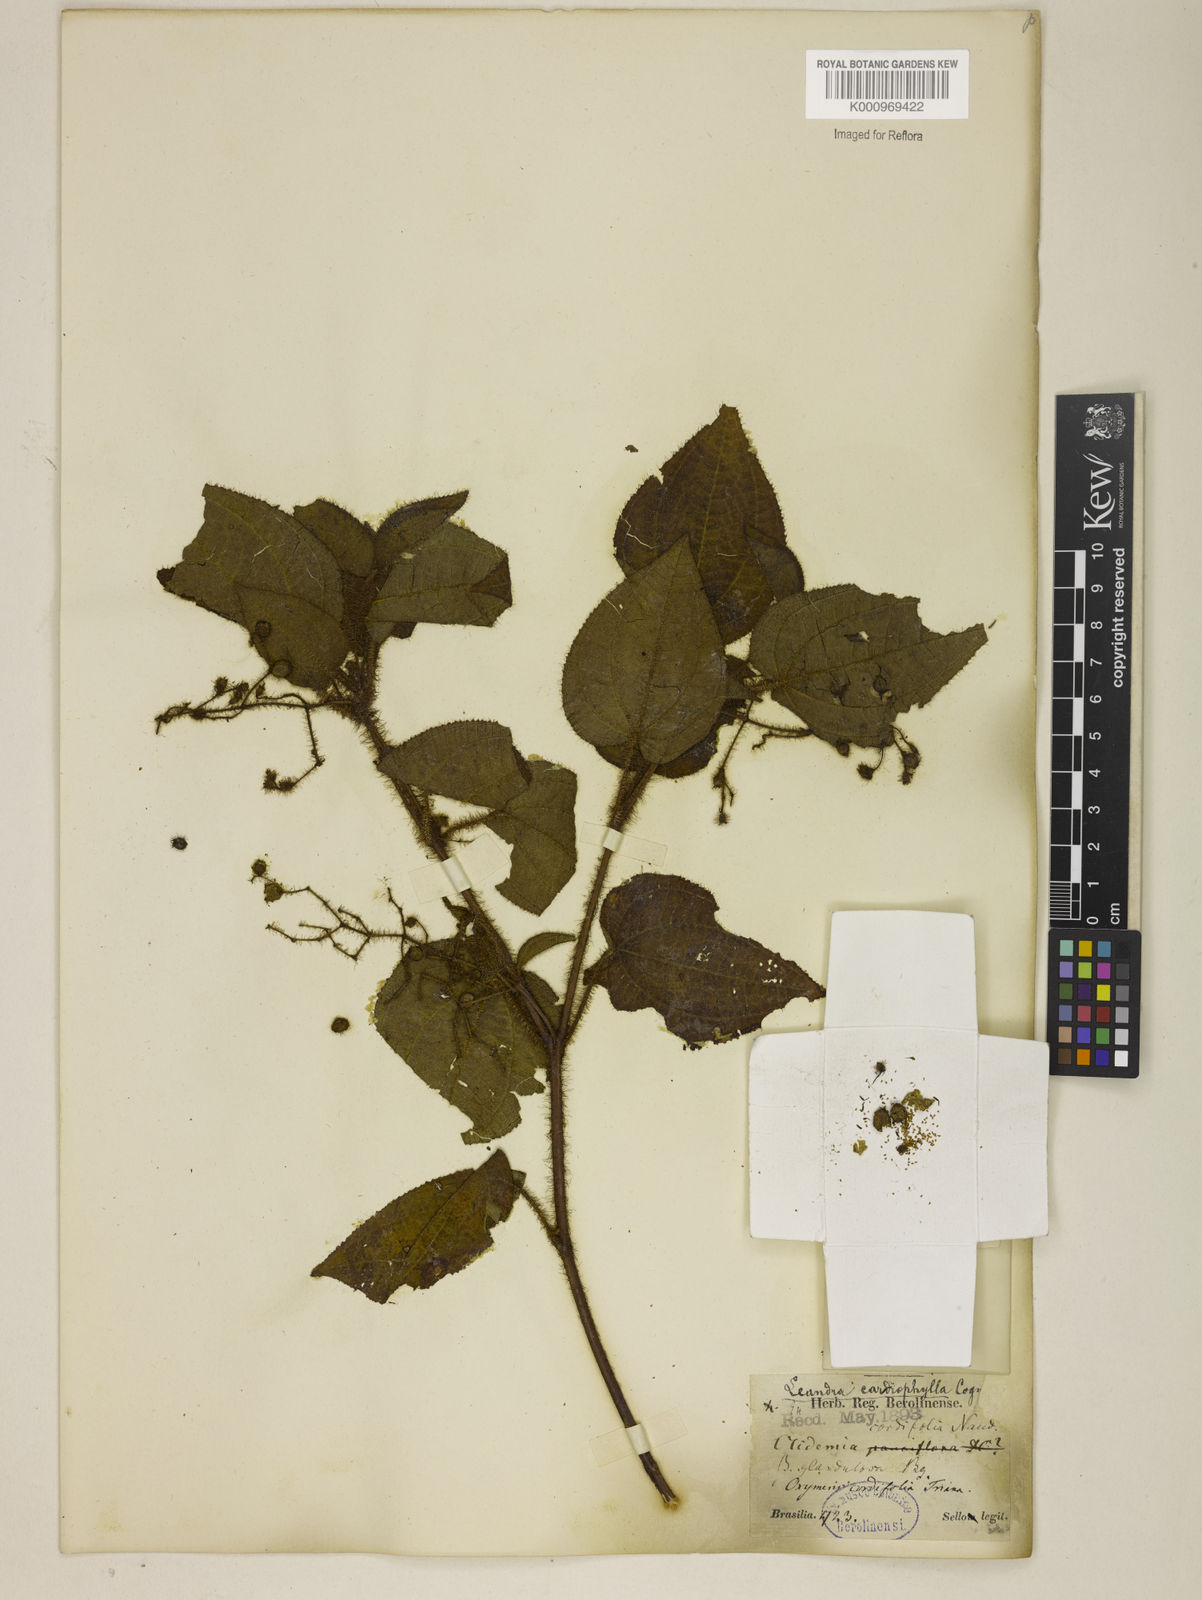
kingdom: Plantae
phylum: Tracheophyta
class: Magnoliopsida
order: Myrtales
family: Melastomataceae
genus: Miconia
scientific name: Miconia leacordifolia
